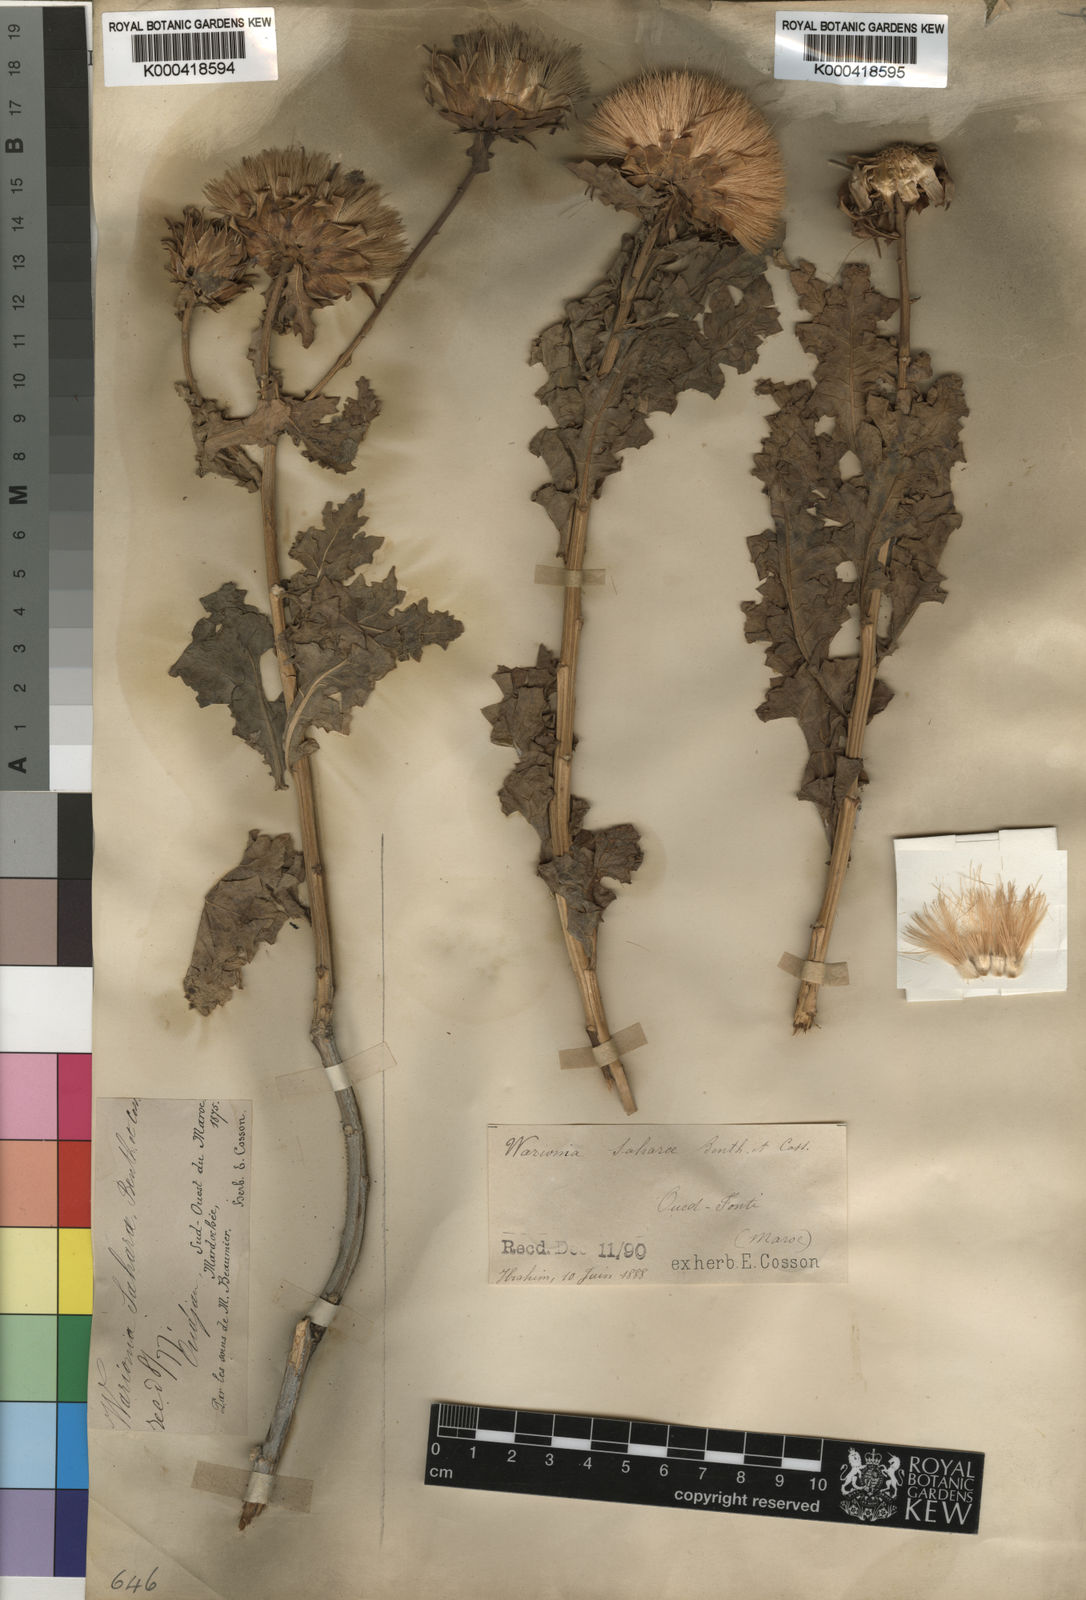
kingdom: Plantae
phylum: Tracheophyta
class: Magnoliopsida
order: Asterales
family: Asteraceae
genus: Warionia
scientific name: Warionia saharae
